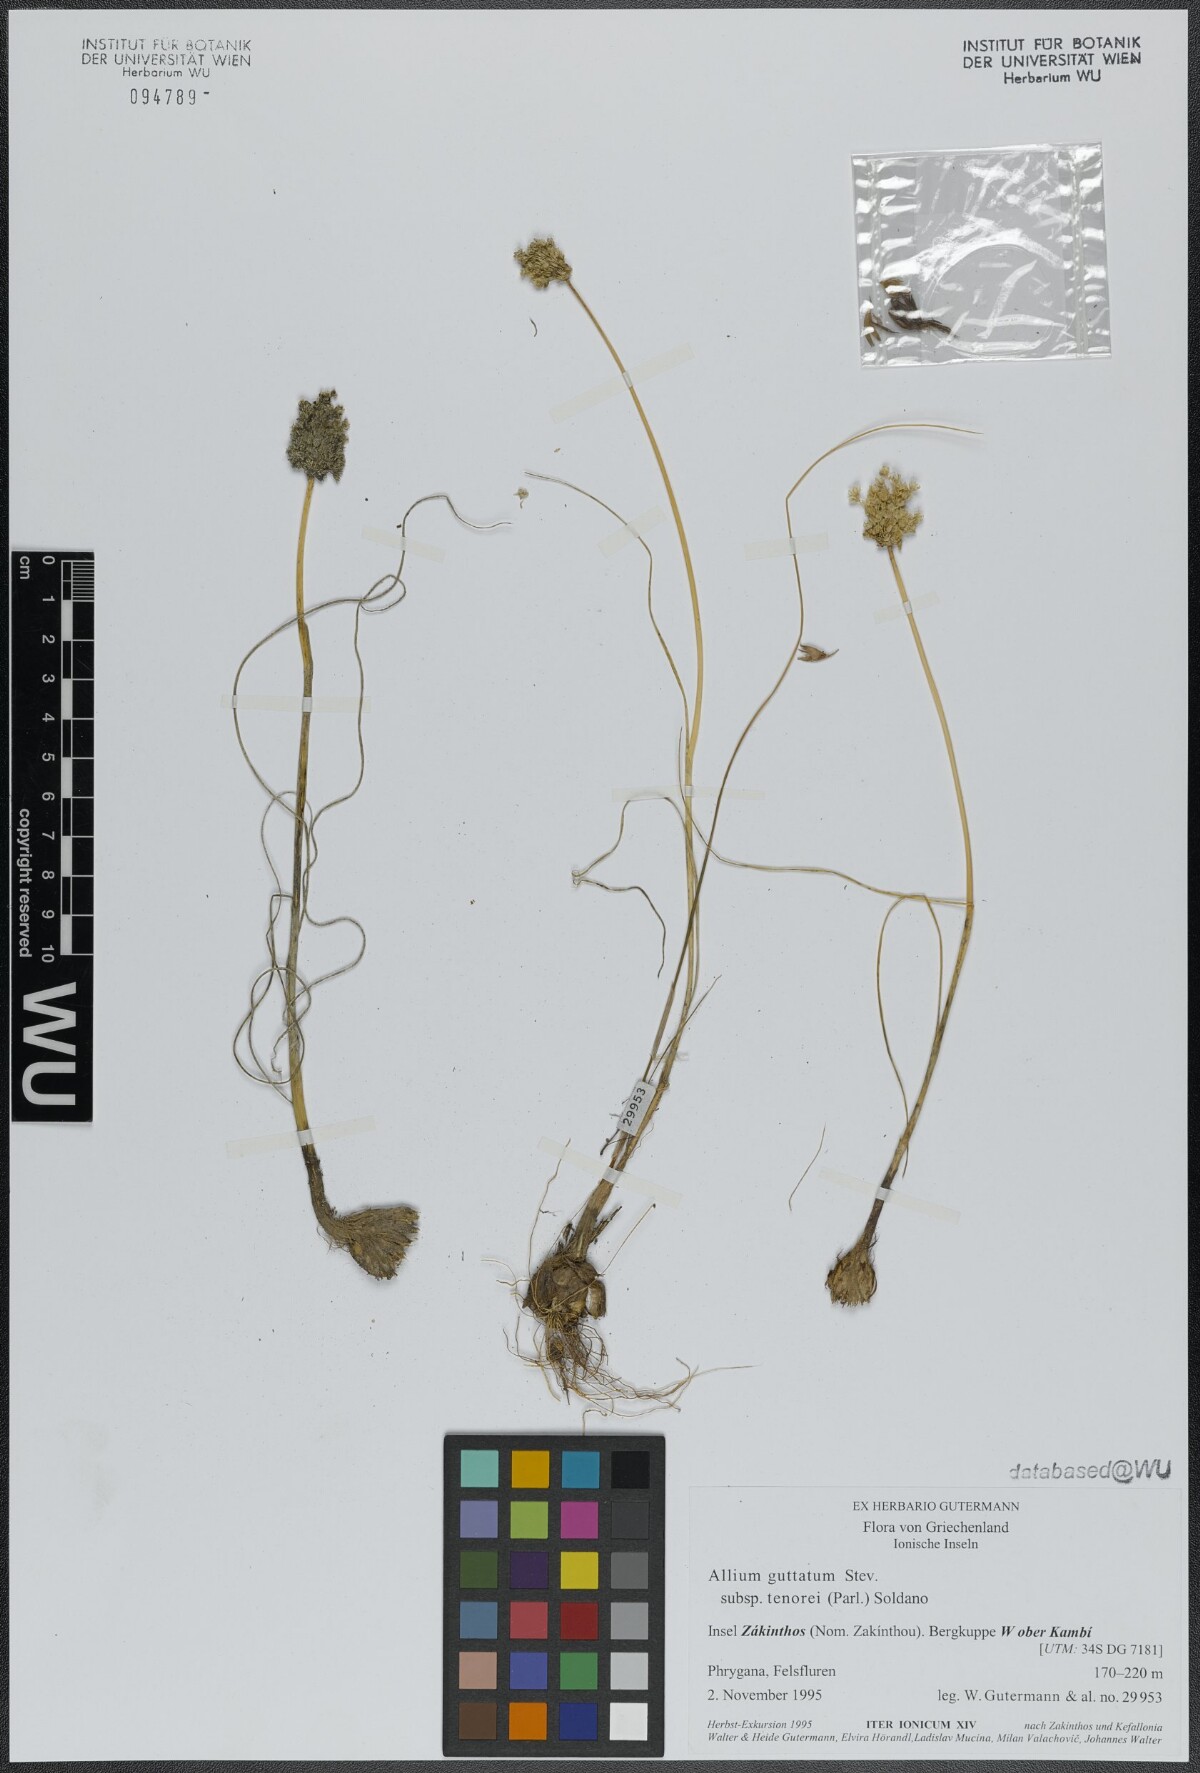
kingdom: Plantae
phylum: Tracheophyta
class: Liliopsida
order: Asparagales
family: Amaryllidaceae
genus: Allium
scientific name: Allium sardoum
